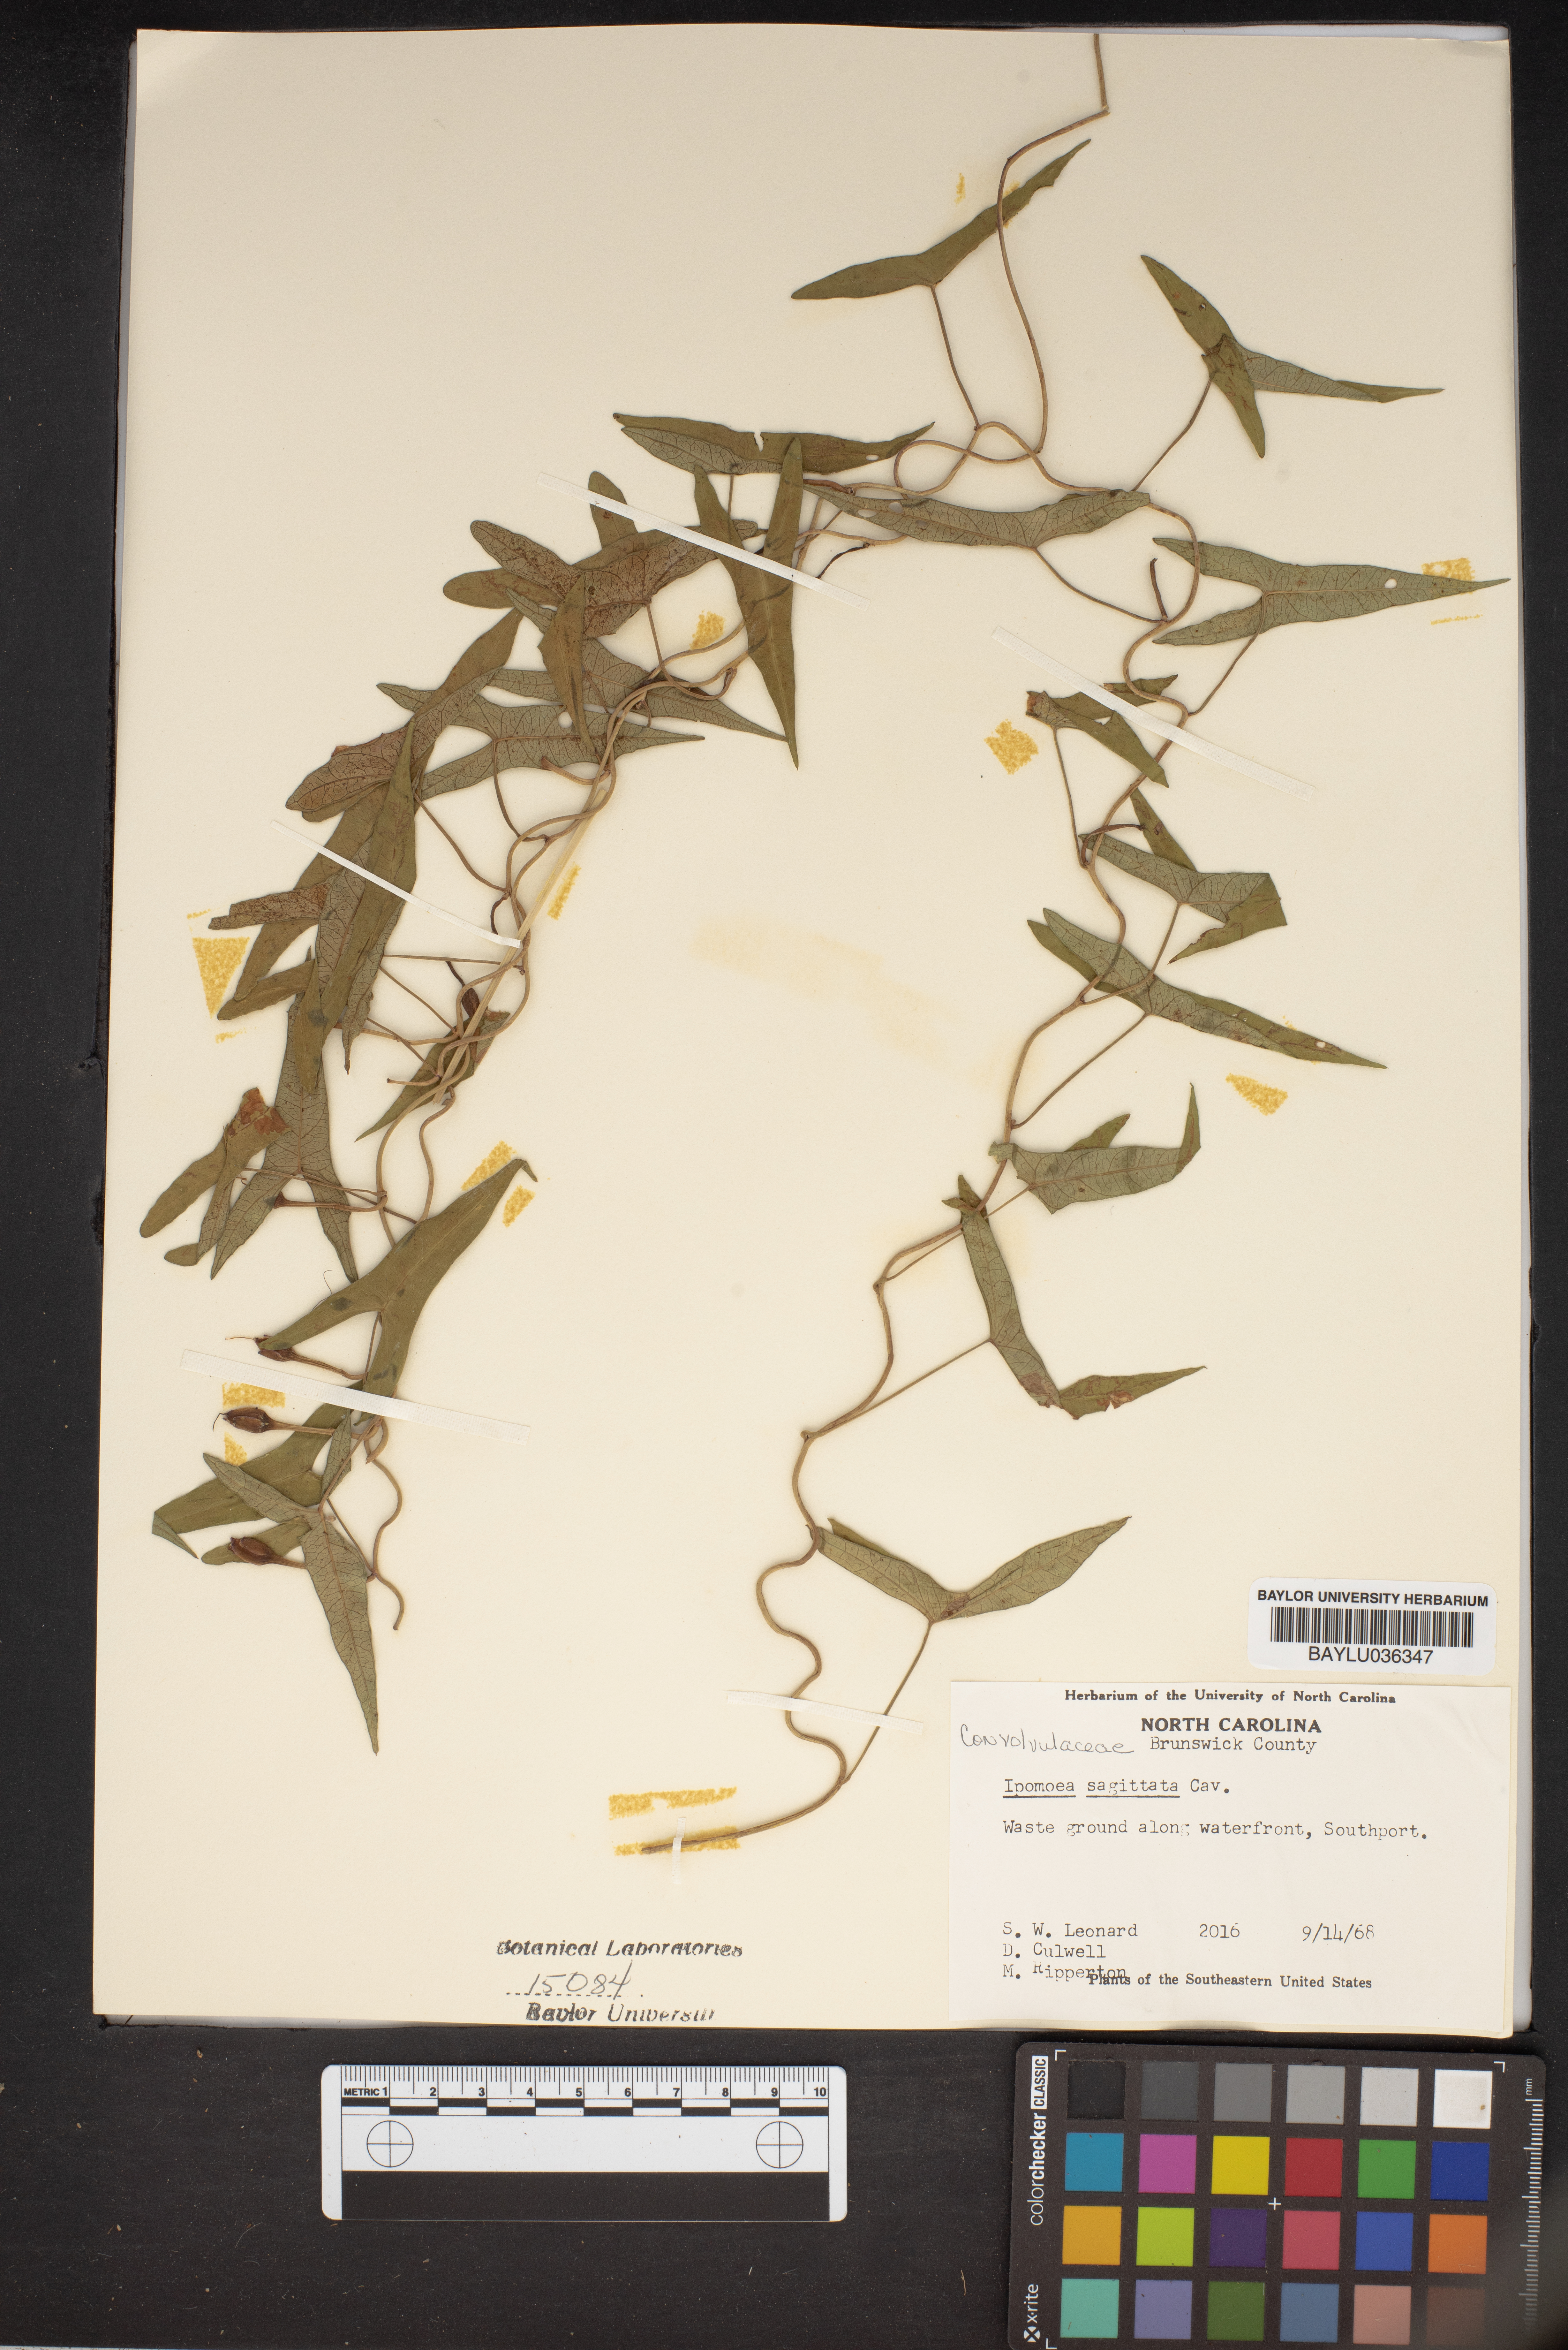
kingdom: Plantae
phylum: Tracheophyta
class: Magnoliopsida
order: Solanales
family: Convolvulaceae
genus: Ipomoea
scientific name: Ipomoea sinensis
